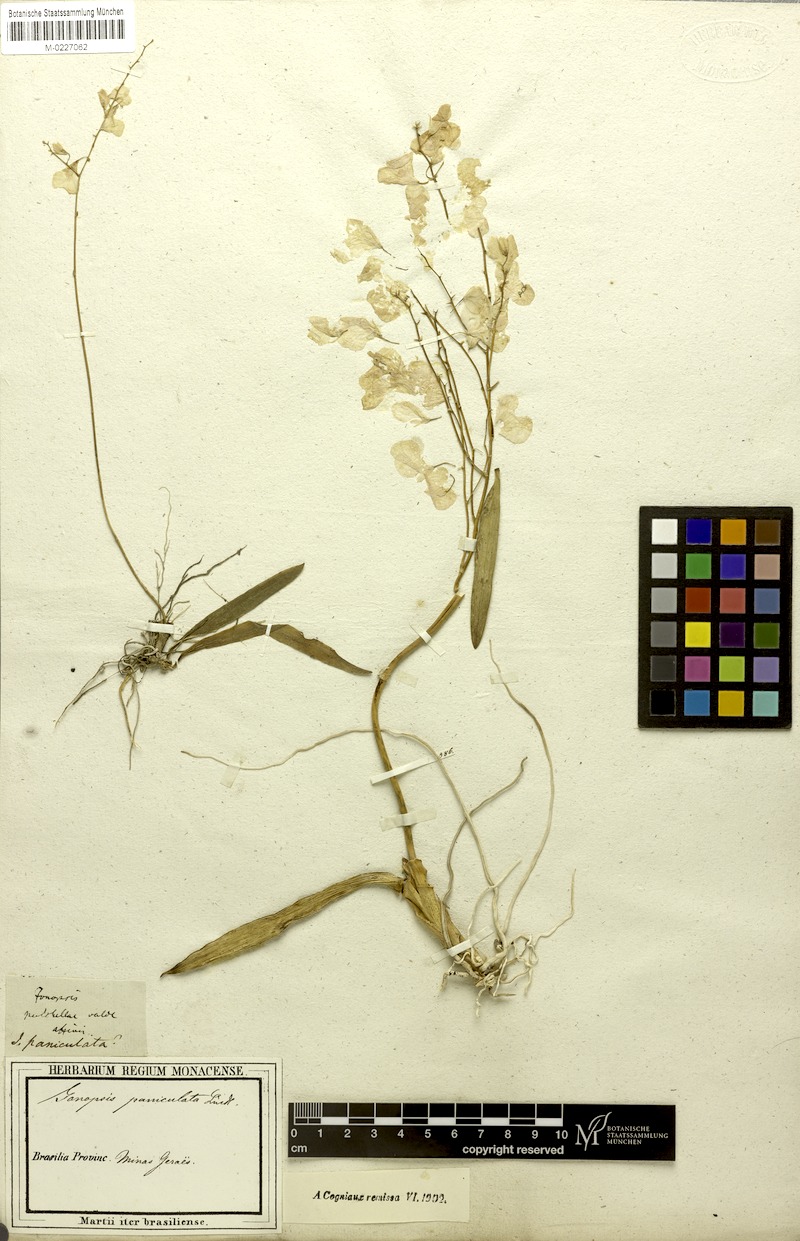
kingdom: Plantae
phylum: Tracheophyta
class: Liliopsida
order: Asparagales
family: Orchidaceae
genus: Ionopsis
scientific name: Ionopsis utricularioides
